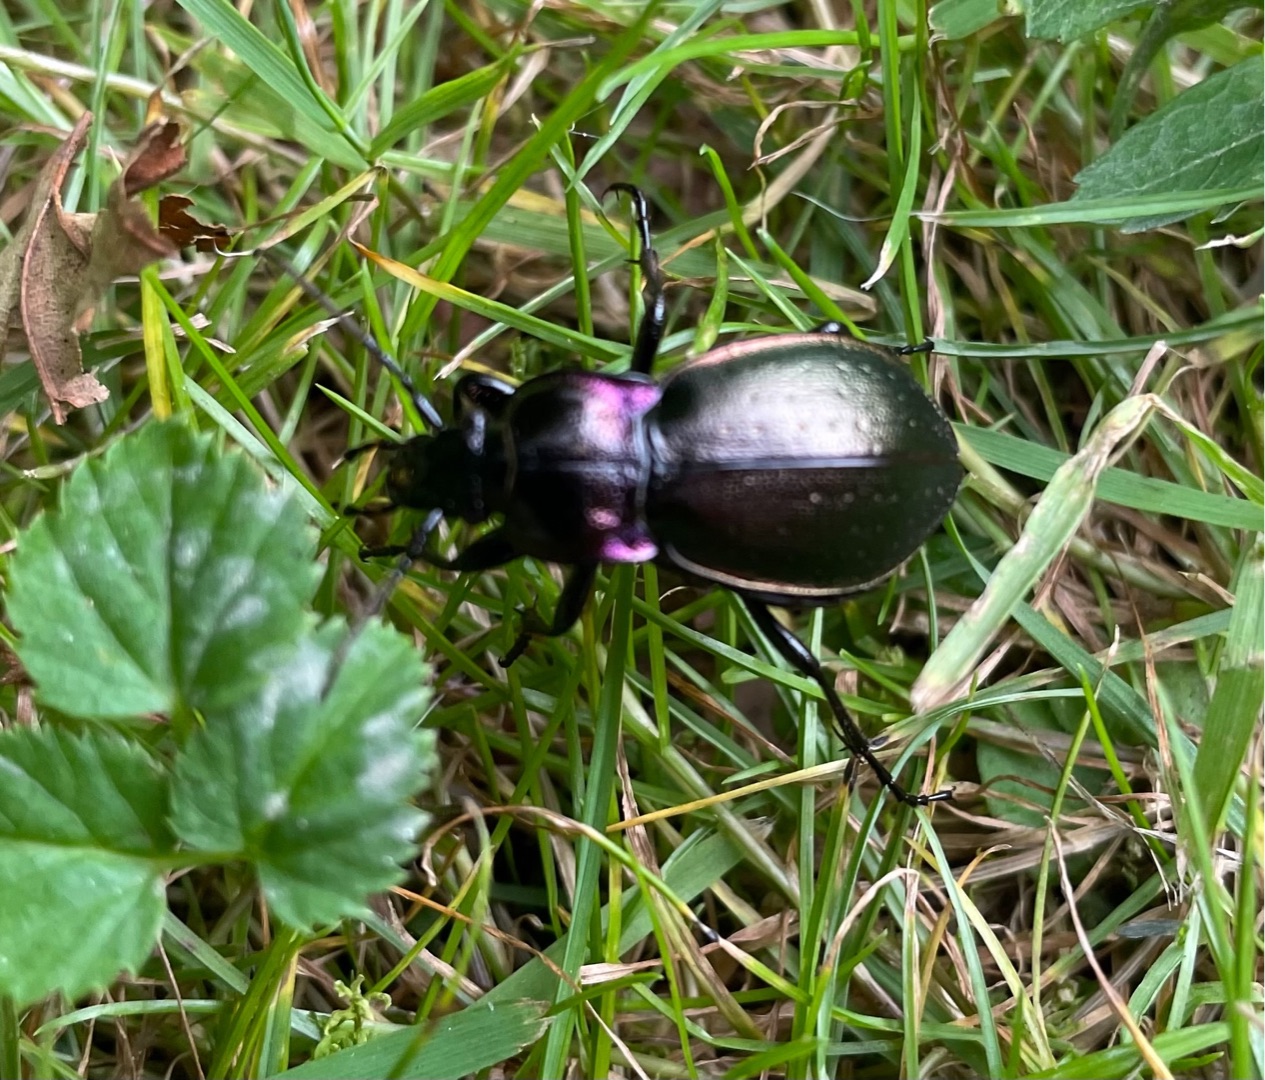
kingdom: Animalia
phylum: Arthropoda
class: Insecta
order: Coleoptera
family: Carabidae
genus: Carabus
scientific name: Carabus nemoralis
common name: Kratløber
